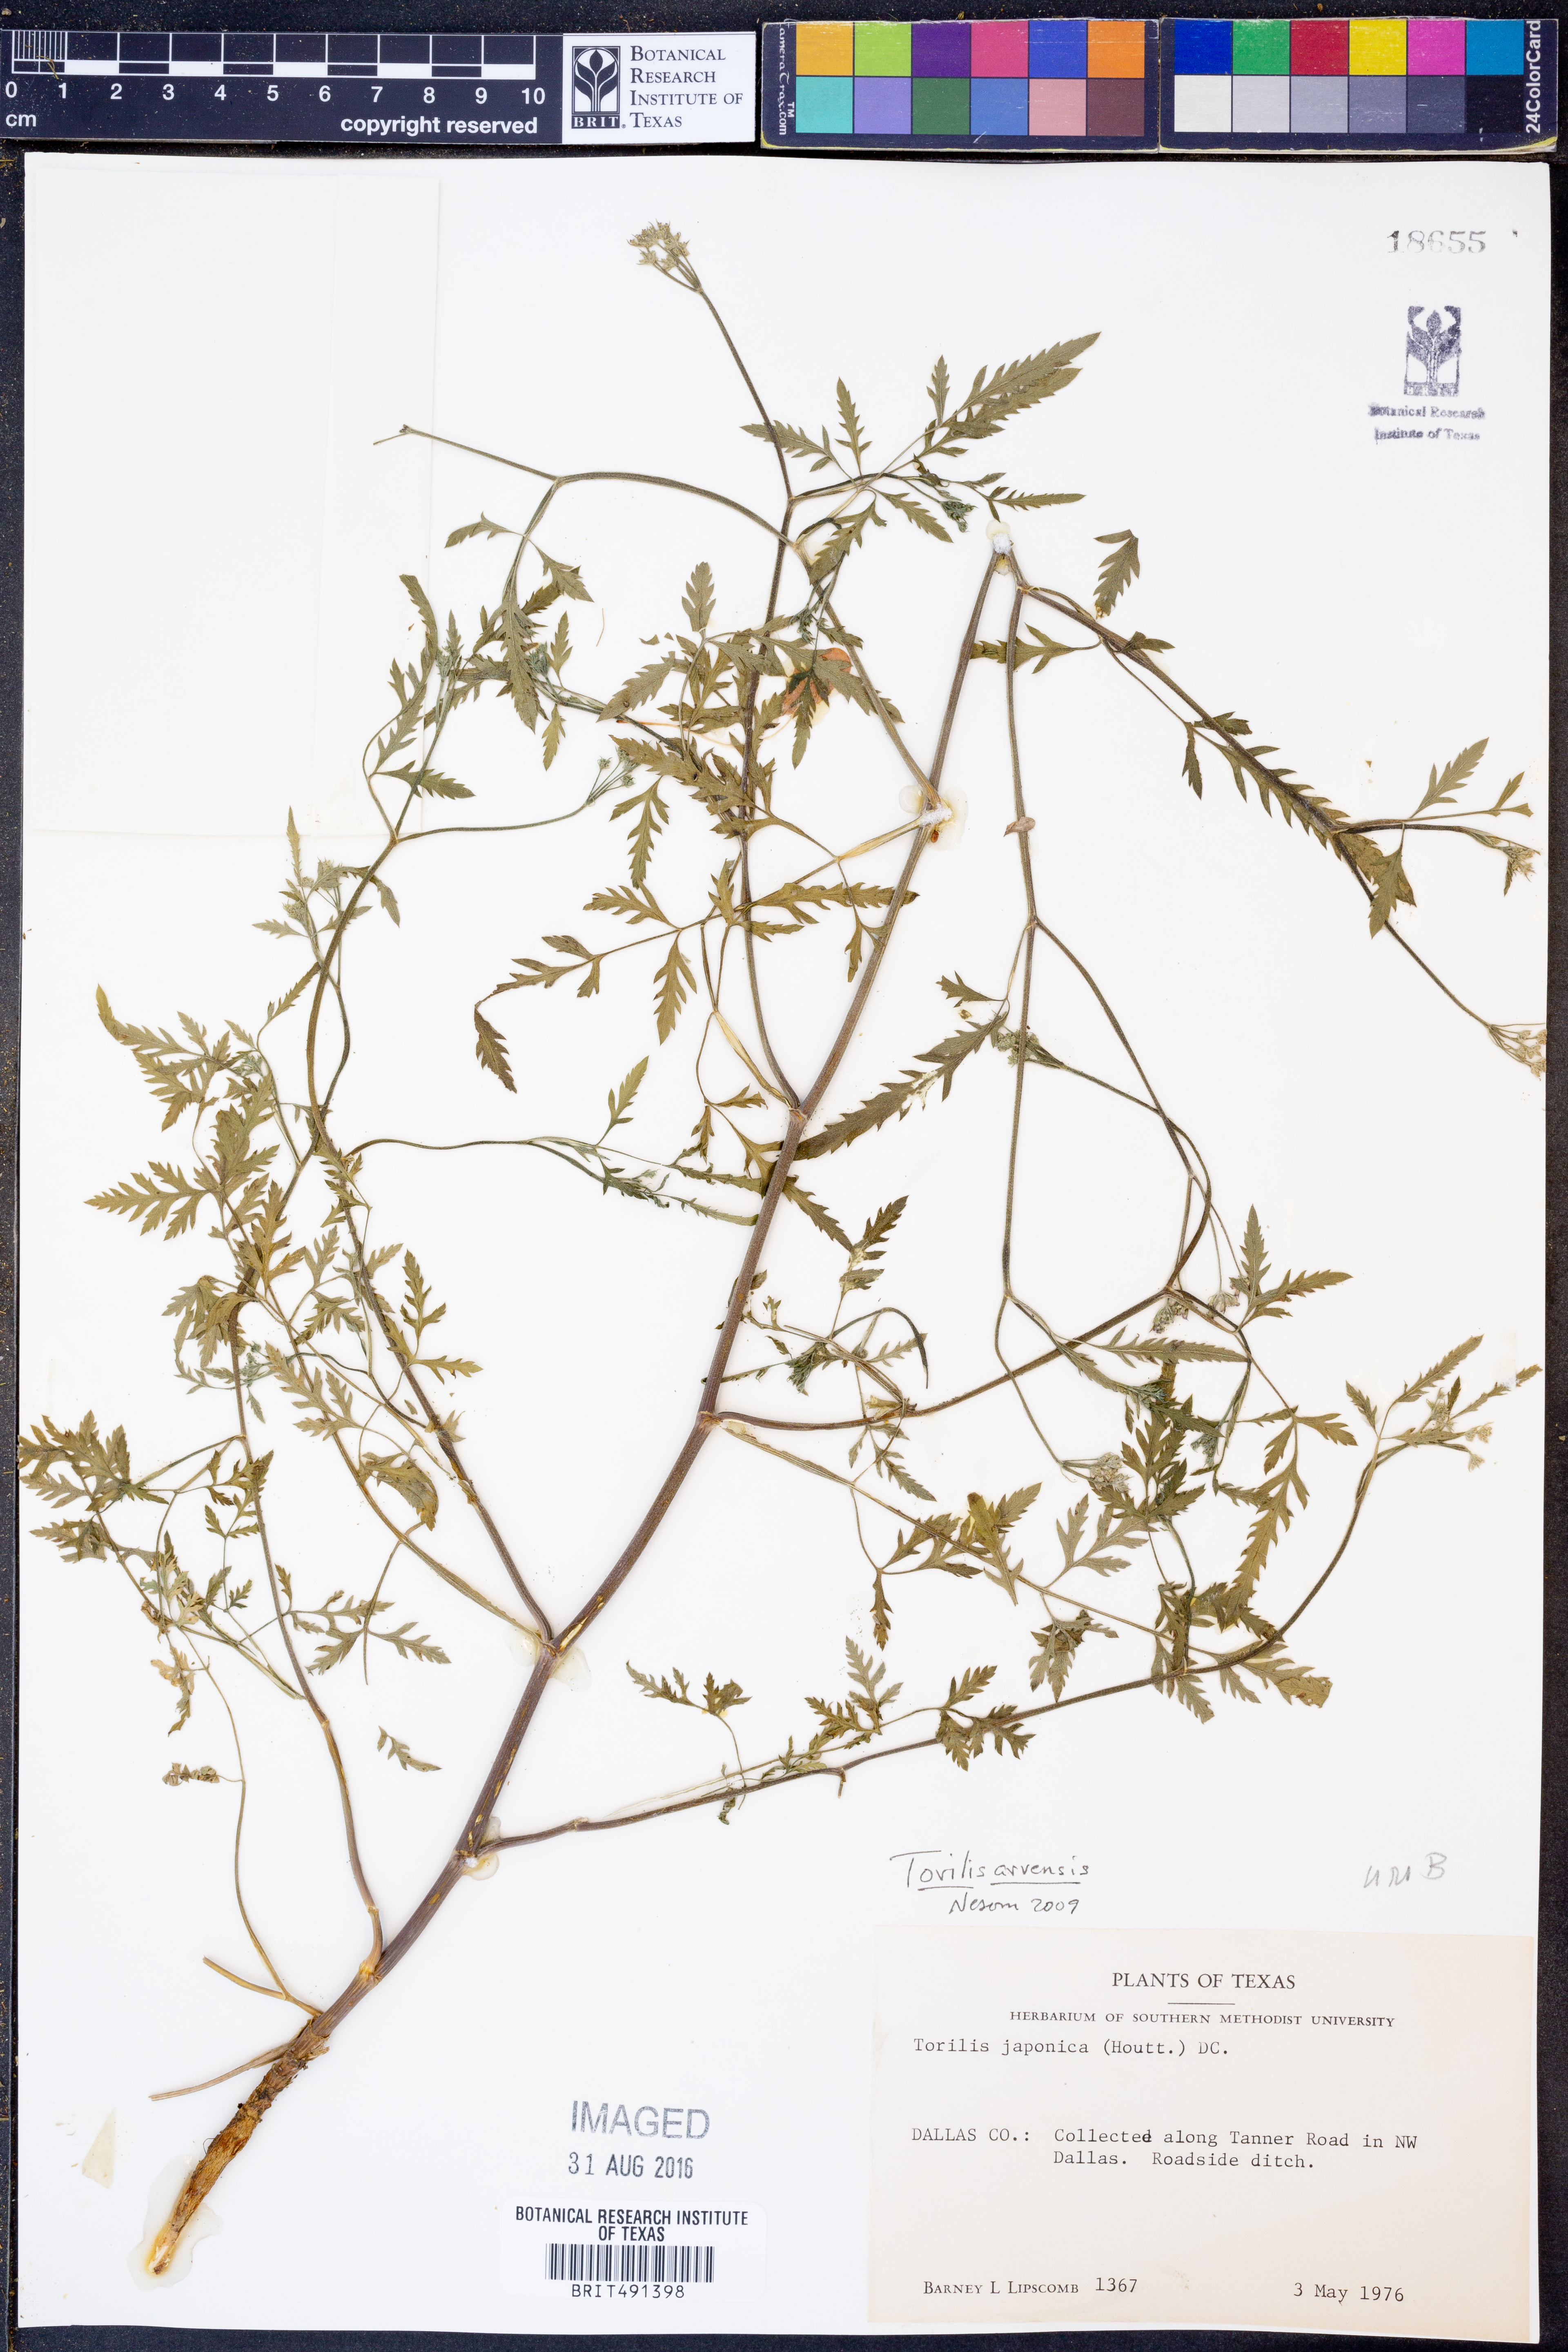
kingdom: Plantae
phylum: Tracheophyta
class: Magnoliopsida
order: Apiales
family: Apiaceae
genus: Torilis
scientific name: Torilis arvensis
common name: Spreading hedge-parsley
